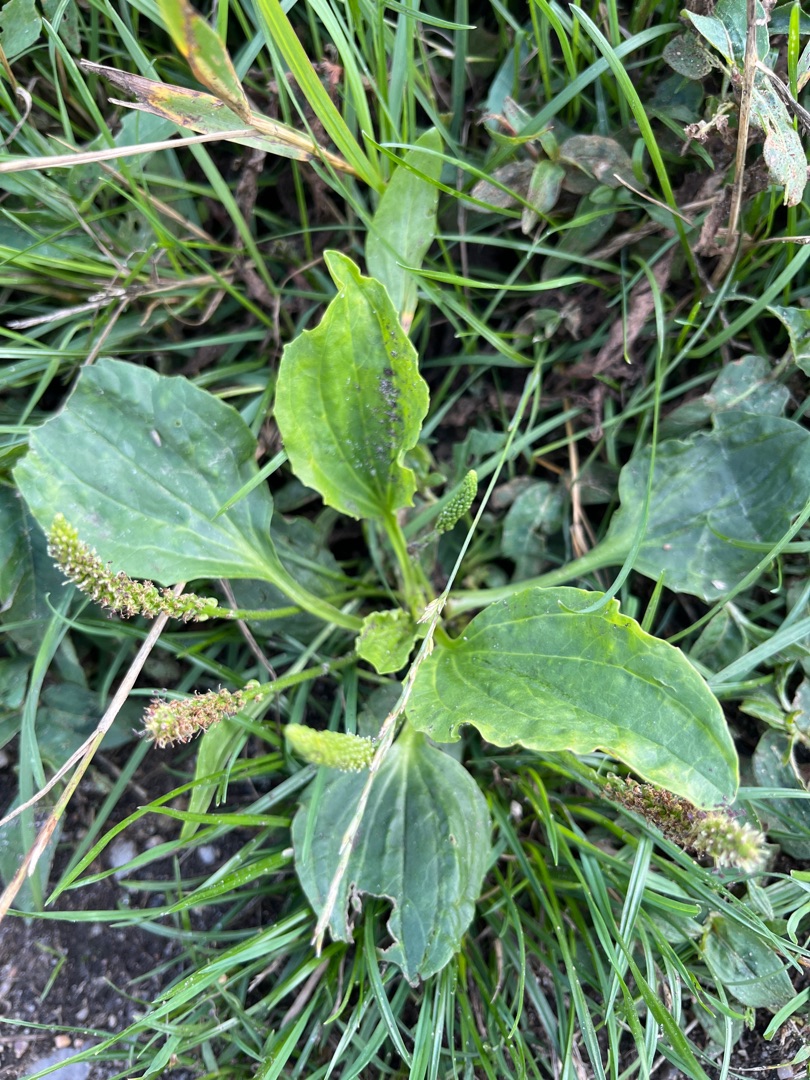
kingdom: Plantae
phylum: Tracheophyta
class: Magnoliopsida
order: Lamiales
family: Plantaginaceae
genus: Plantago
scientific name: Plantago major
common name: Glat vejbred
